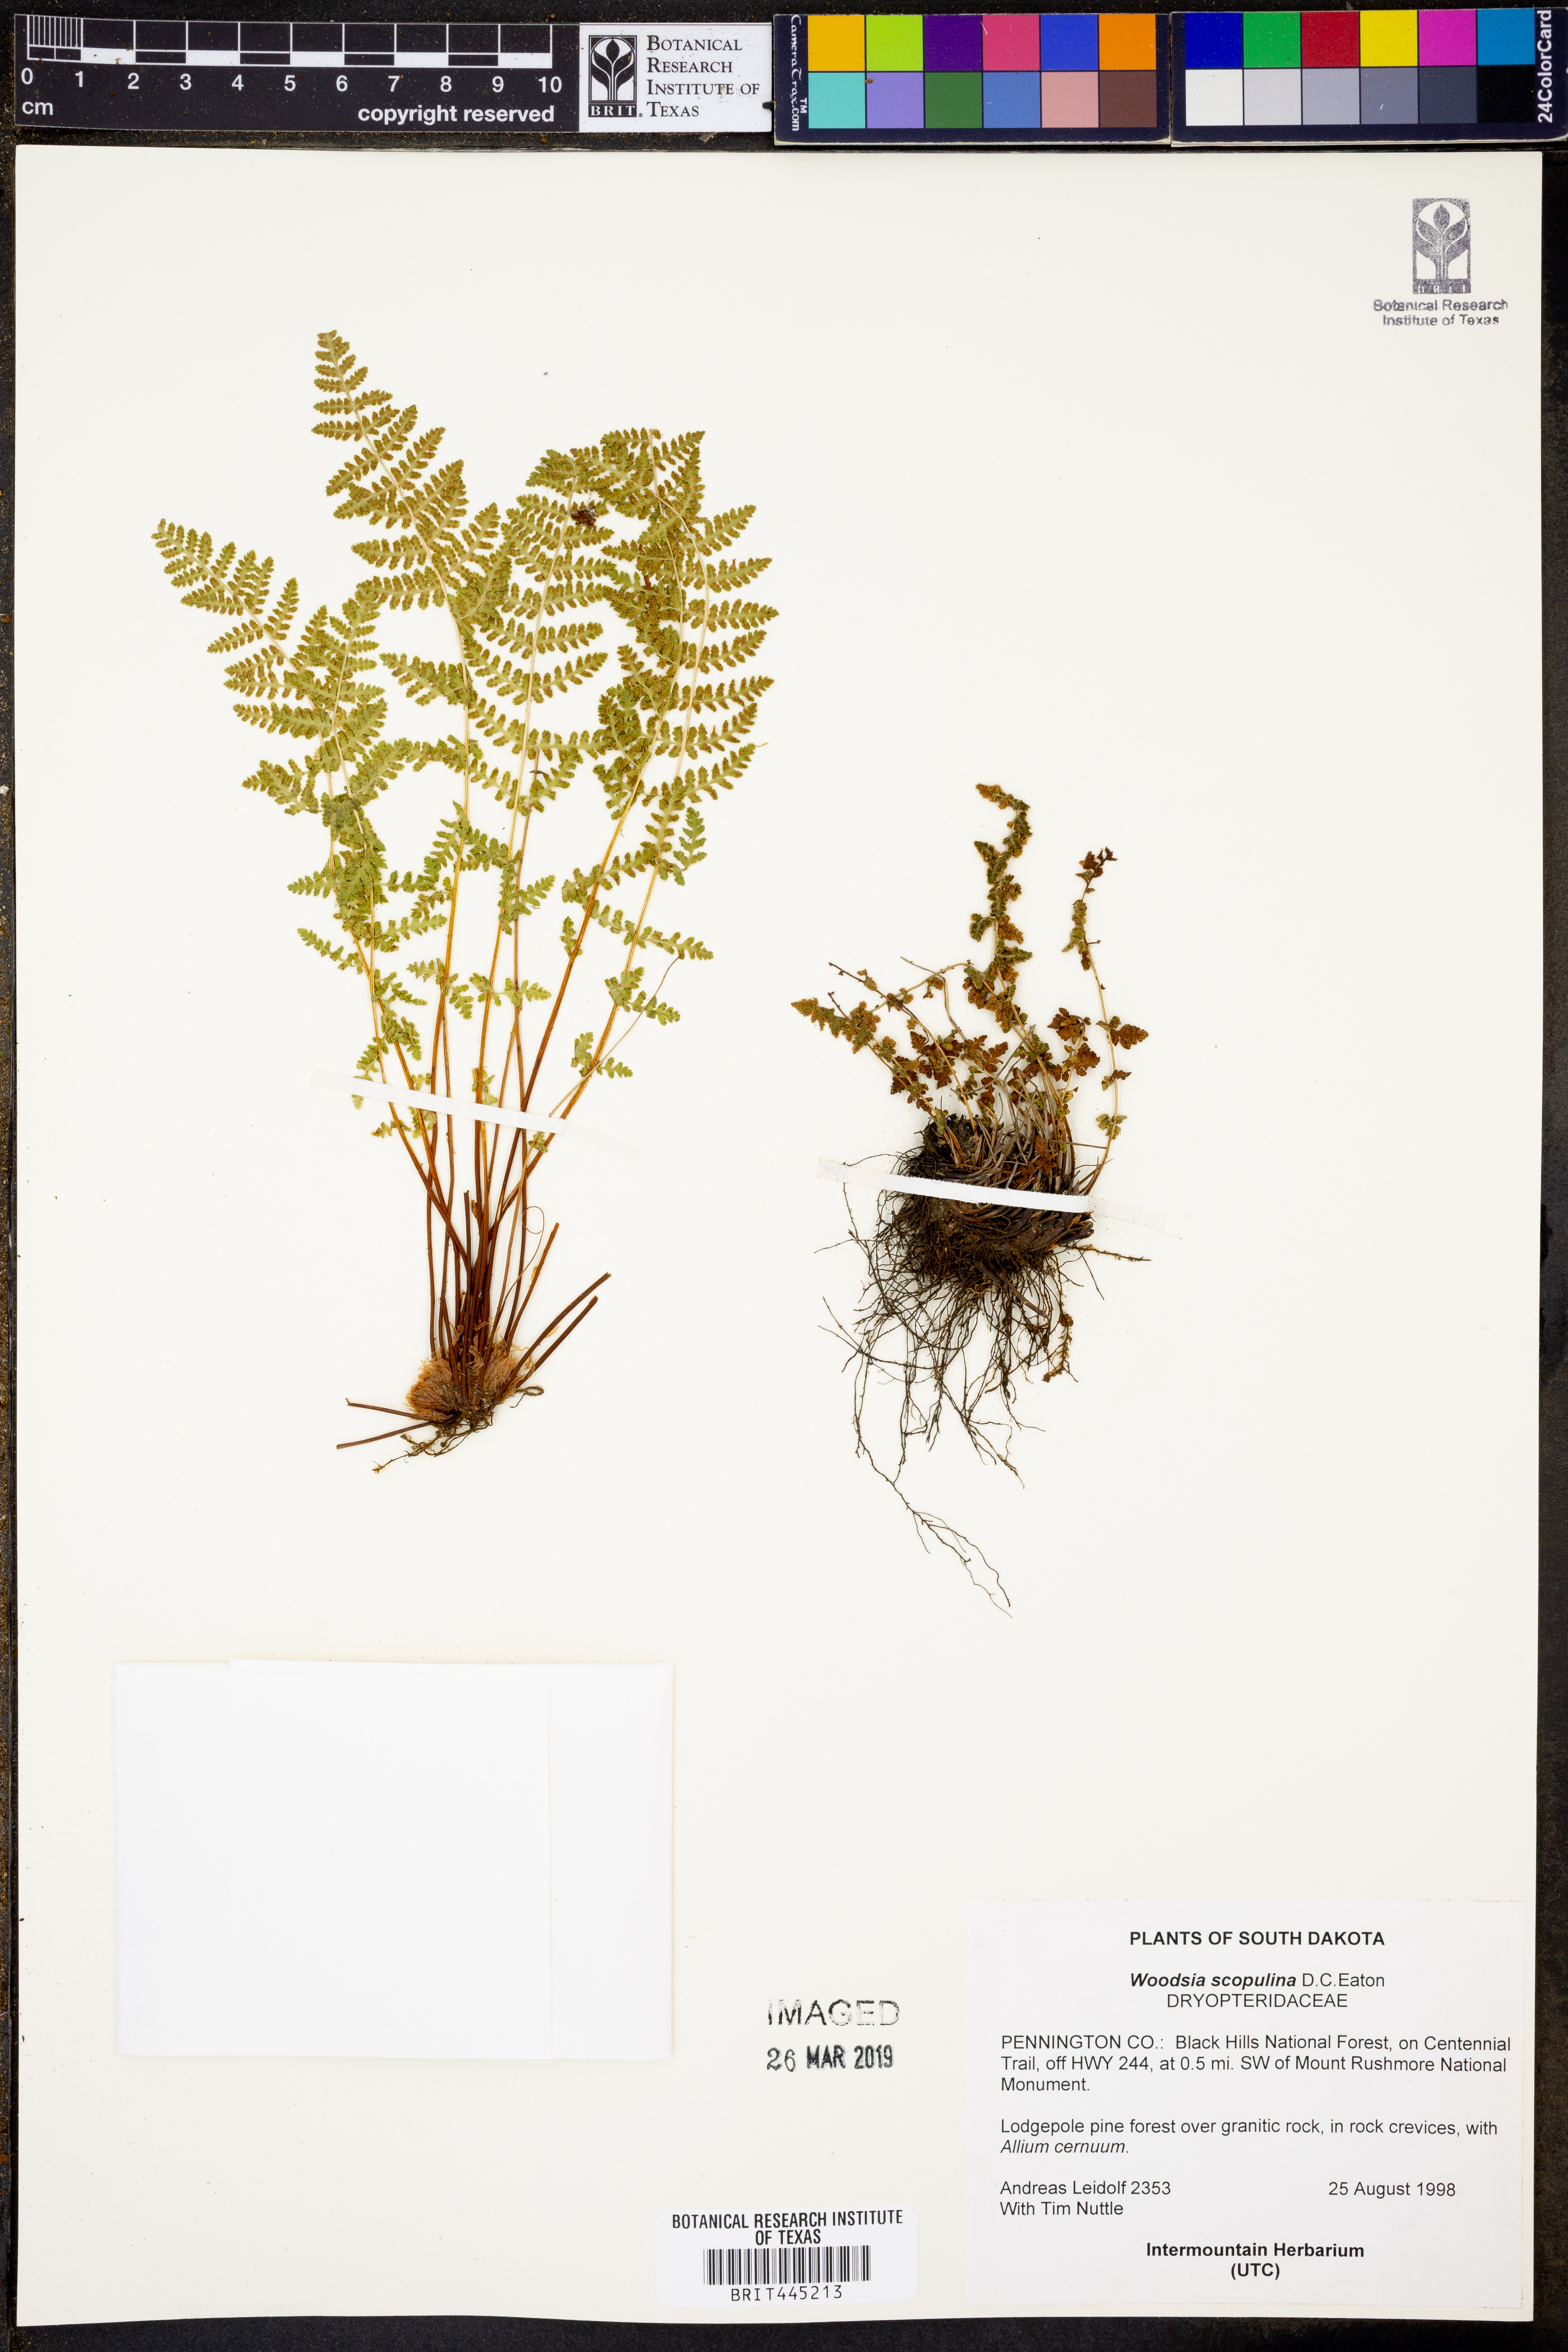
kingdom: Plantae
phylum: Tracheophyta
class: Polypodiopsida
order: Polypodiales
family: Woodsiaceae
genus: Physematium
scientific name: Physematium scopulinum
